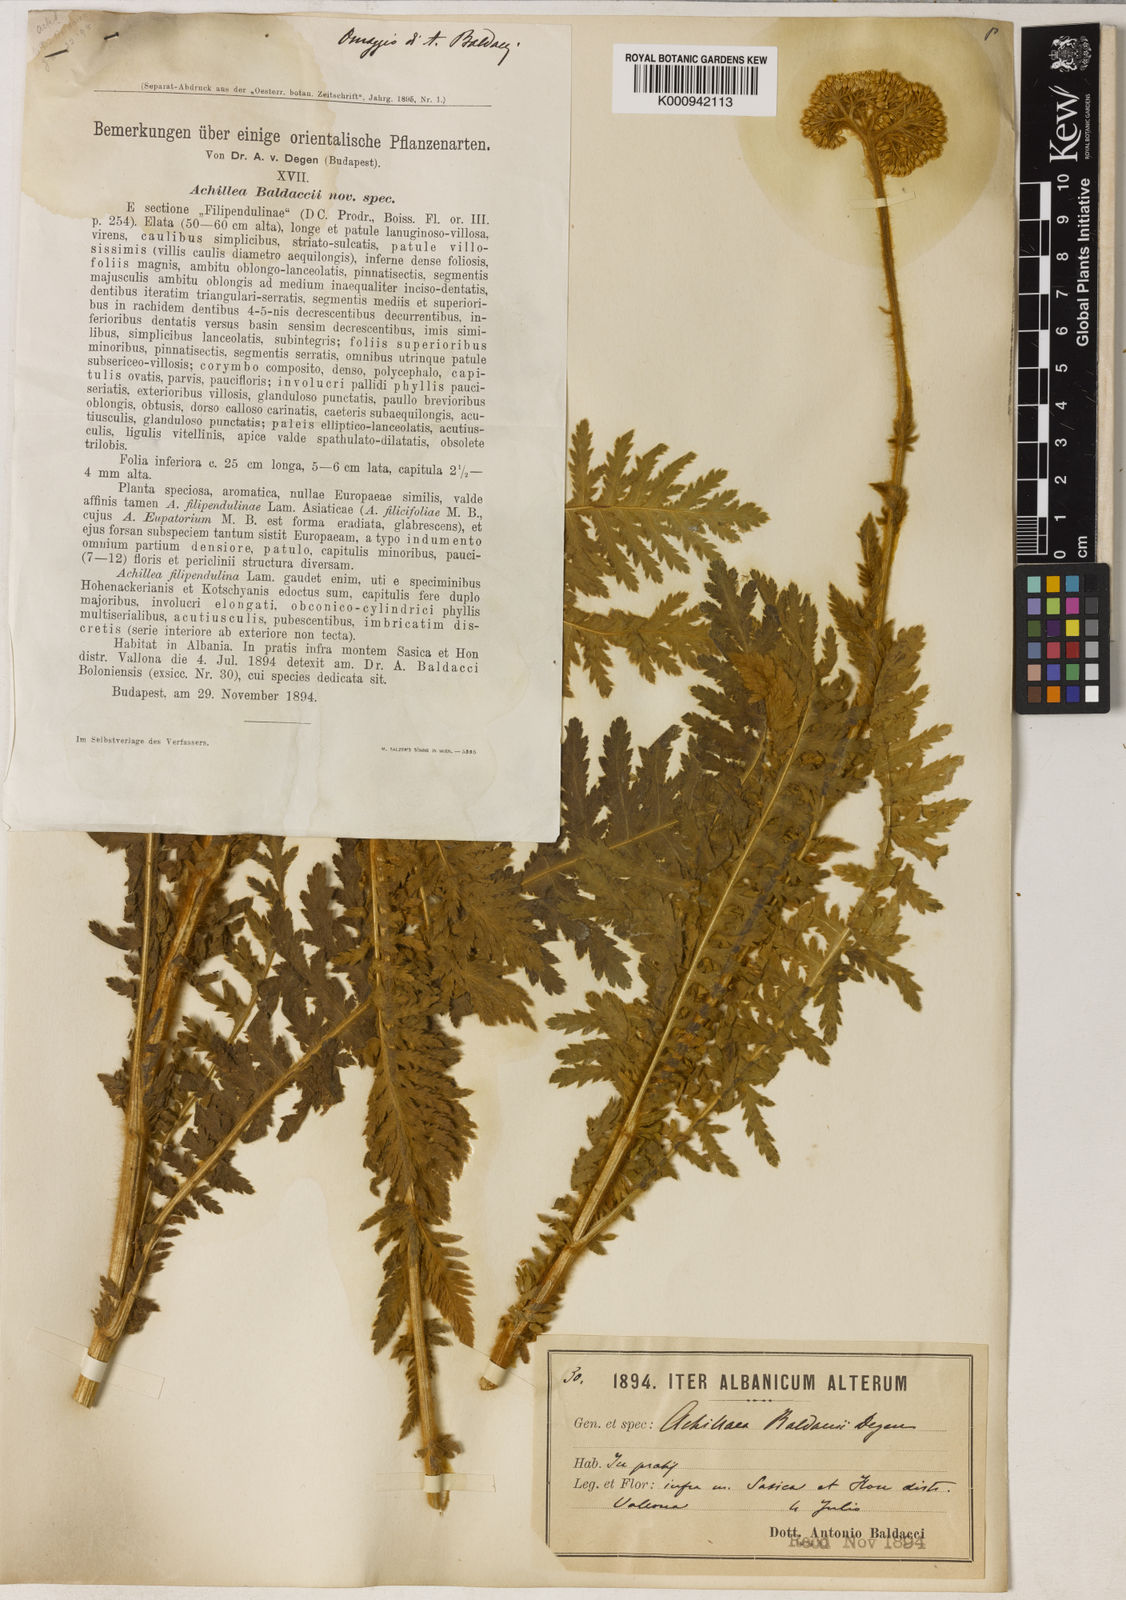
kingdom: Plantae
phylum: Tracheophyta
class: Magnoliopsida
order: Asterales
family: Asteraceae
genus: Achillea
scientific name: Achillea thracica
